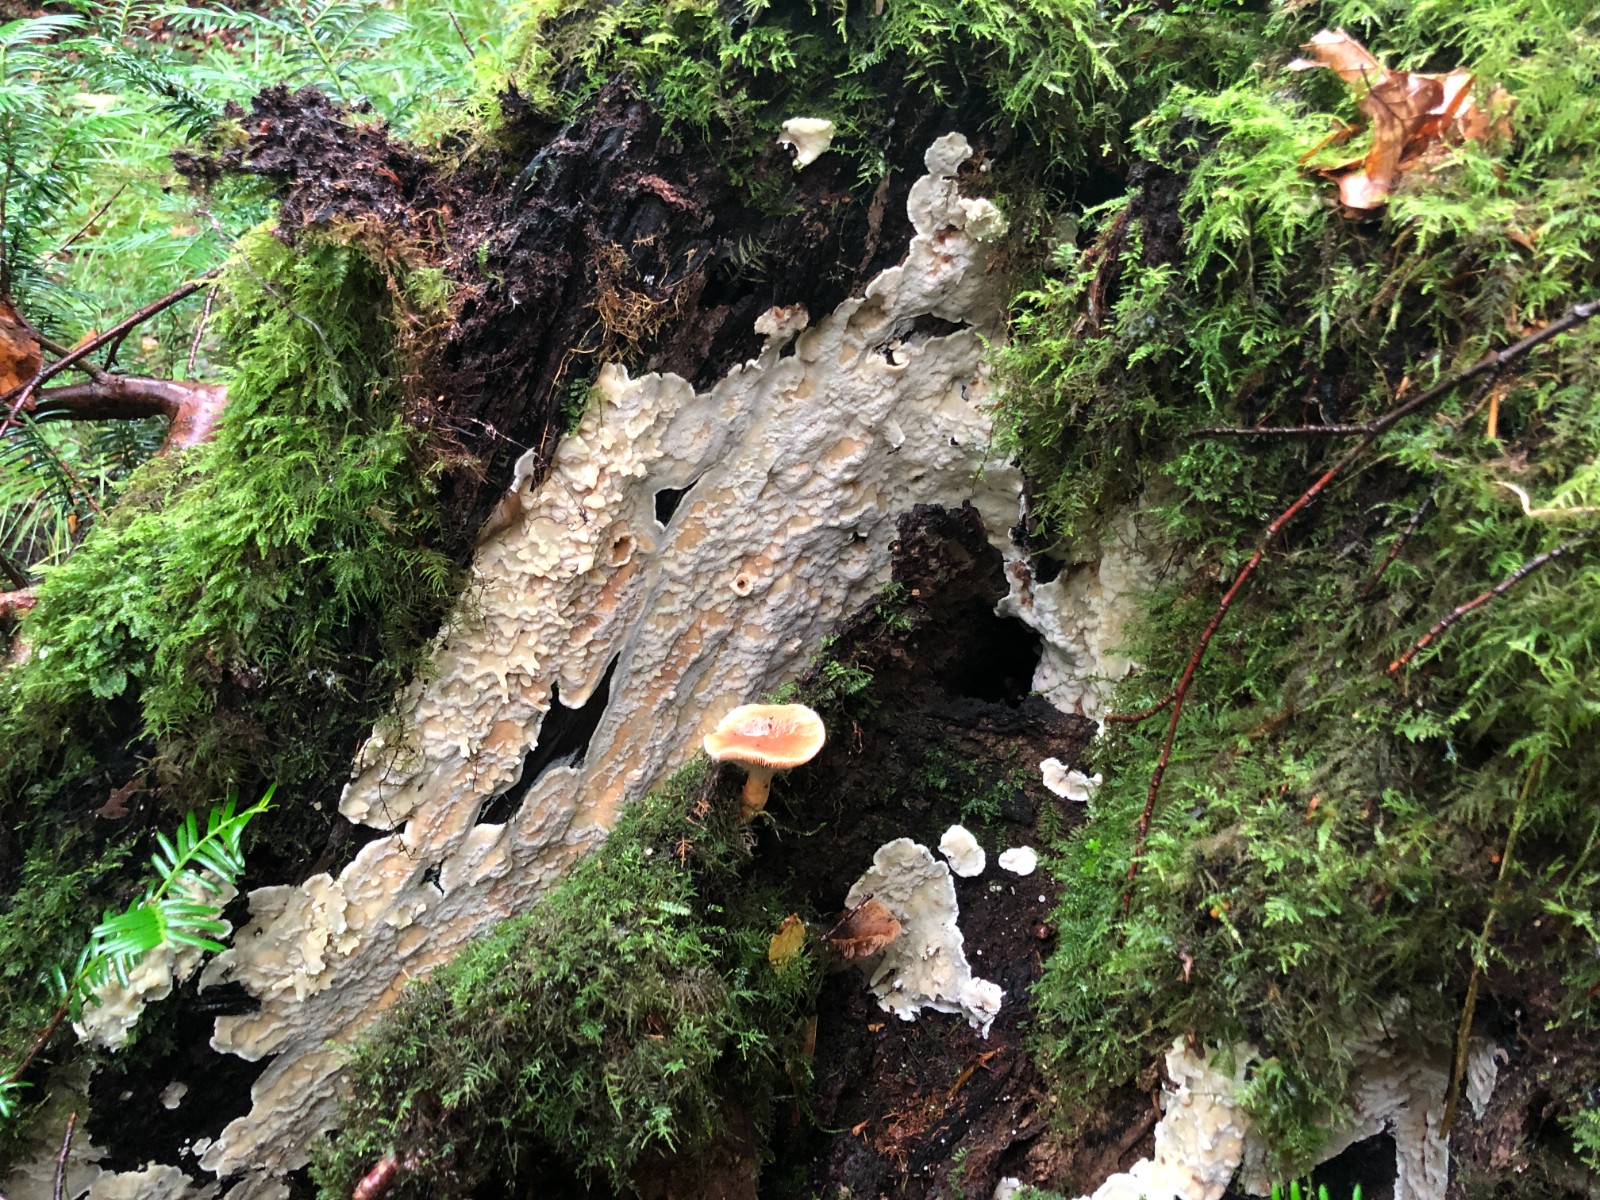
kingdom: Fungi
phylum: Basidiomycota
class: Agaricomycetes
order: Polyporales
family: Meruliaceae
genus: Physisporinus
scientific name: Physisporinus
